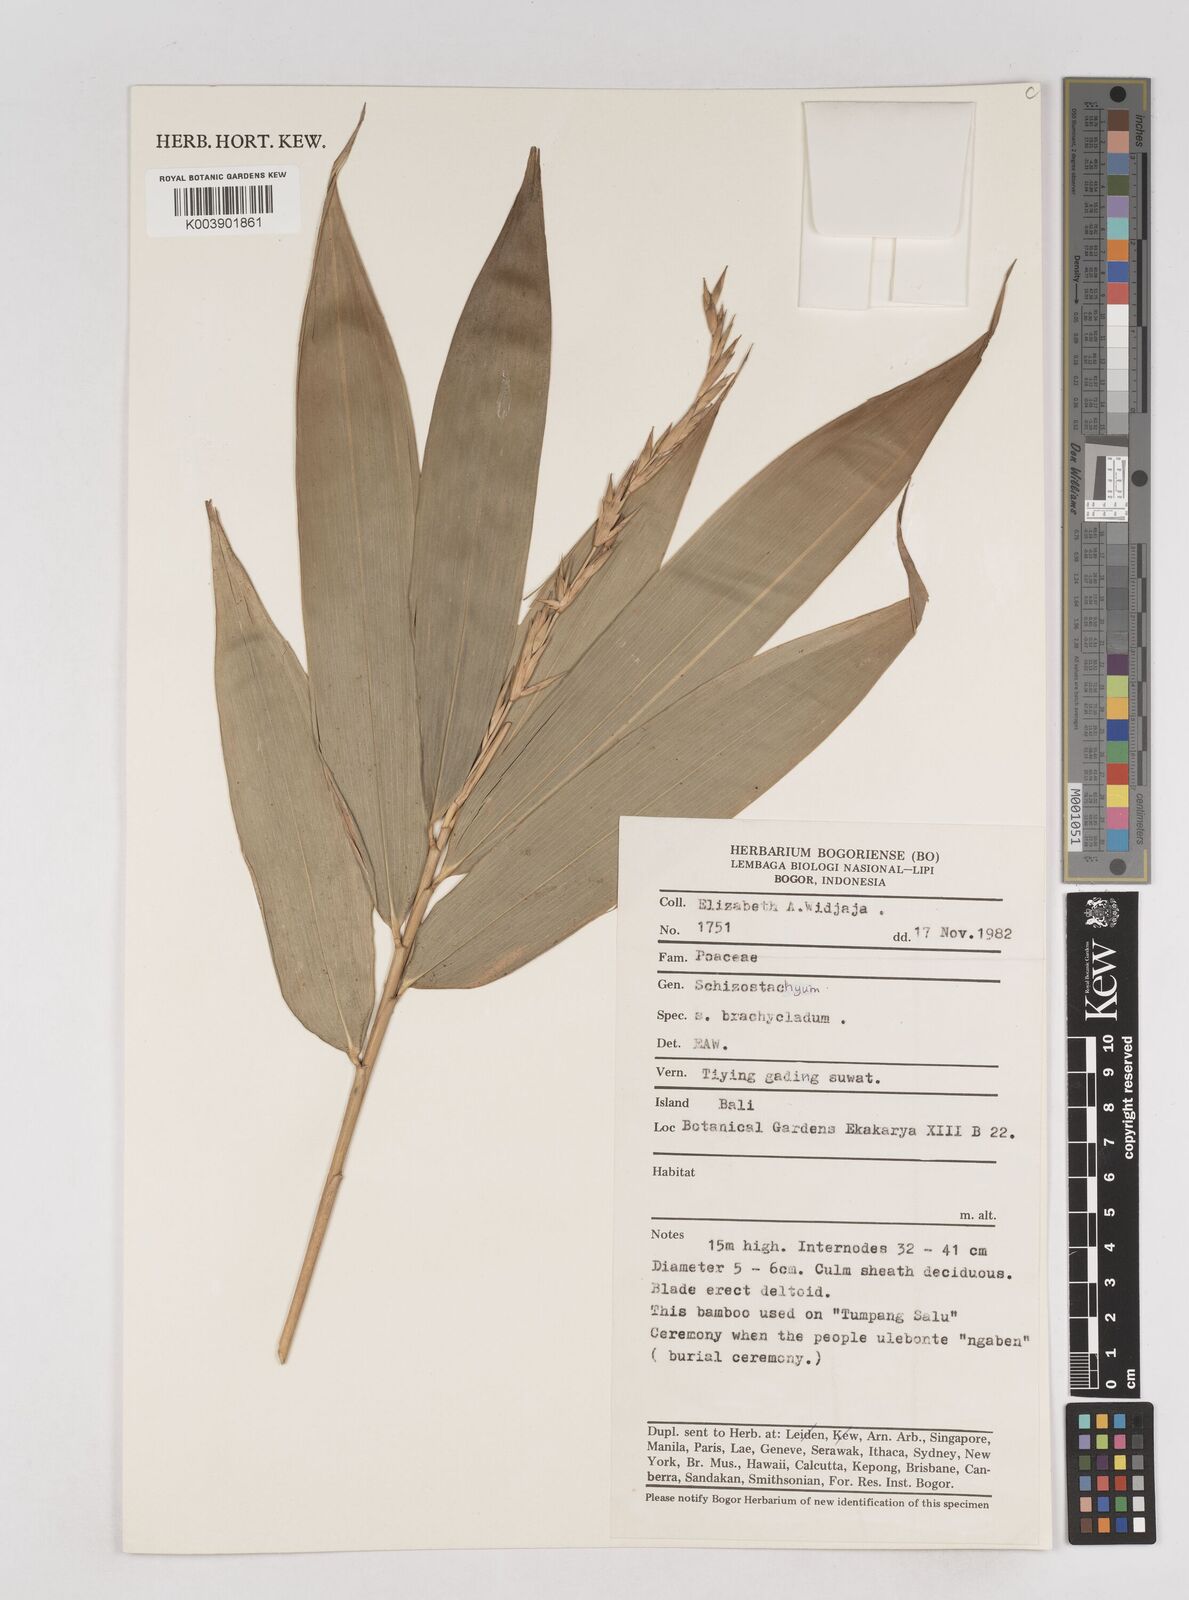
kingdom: Plantae
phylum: Tracheophyta
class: Liliopsida
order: Poales
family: Poaceae
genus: Schizostachyum
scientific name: Schizostachyum brachycladum
